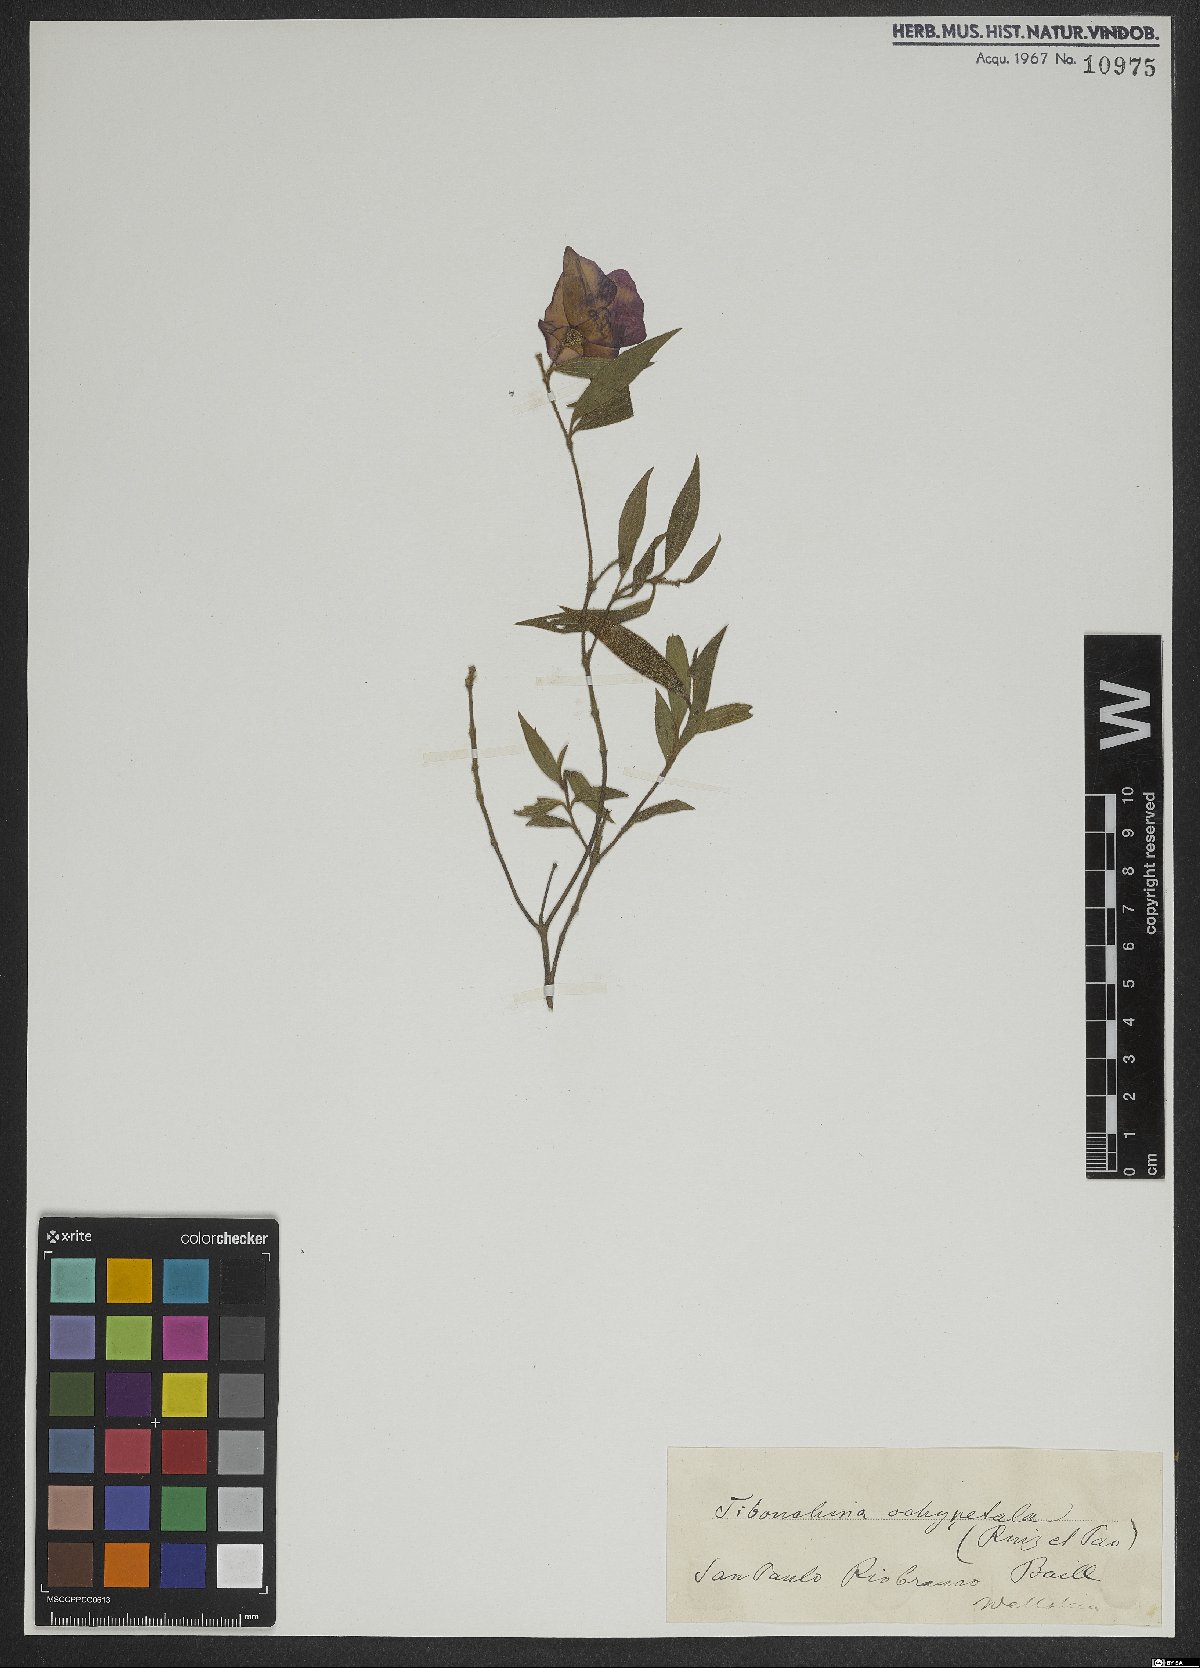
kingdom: Plantae
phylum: Tracheophyta
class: Magnoliopsida
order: Myrtales
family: Melastomataceae
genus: Pleroma
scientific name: Pleroma ochypetalum
